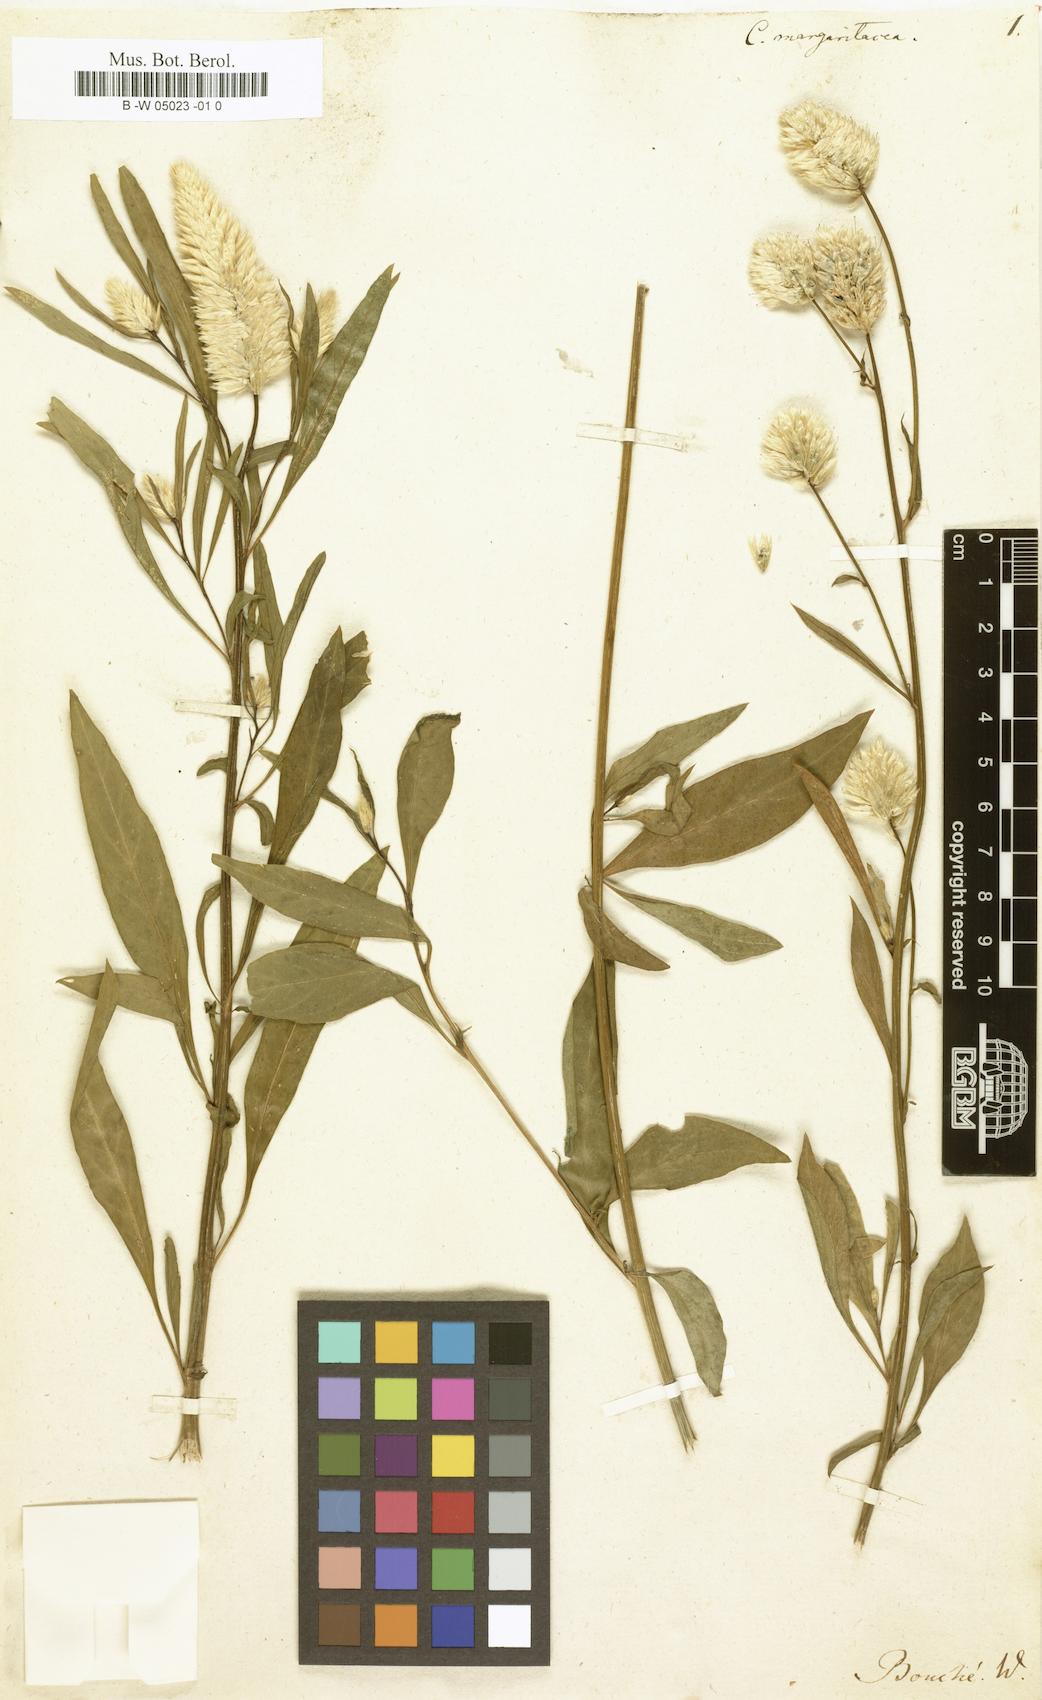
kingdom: Plantae
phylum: Tracheophyta
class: Magnoliopsida
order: Caryophyllales
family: Amaranthaceae
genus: Celosia
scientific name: Celosia argentea
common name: Feather cockscomb
